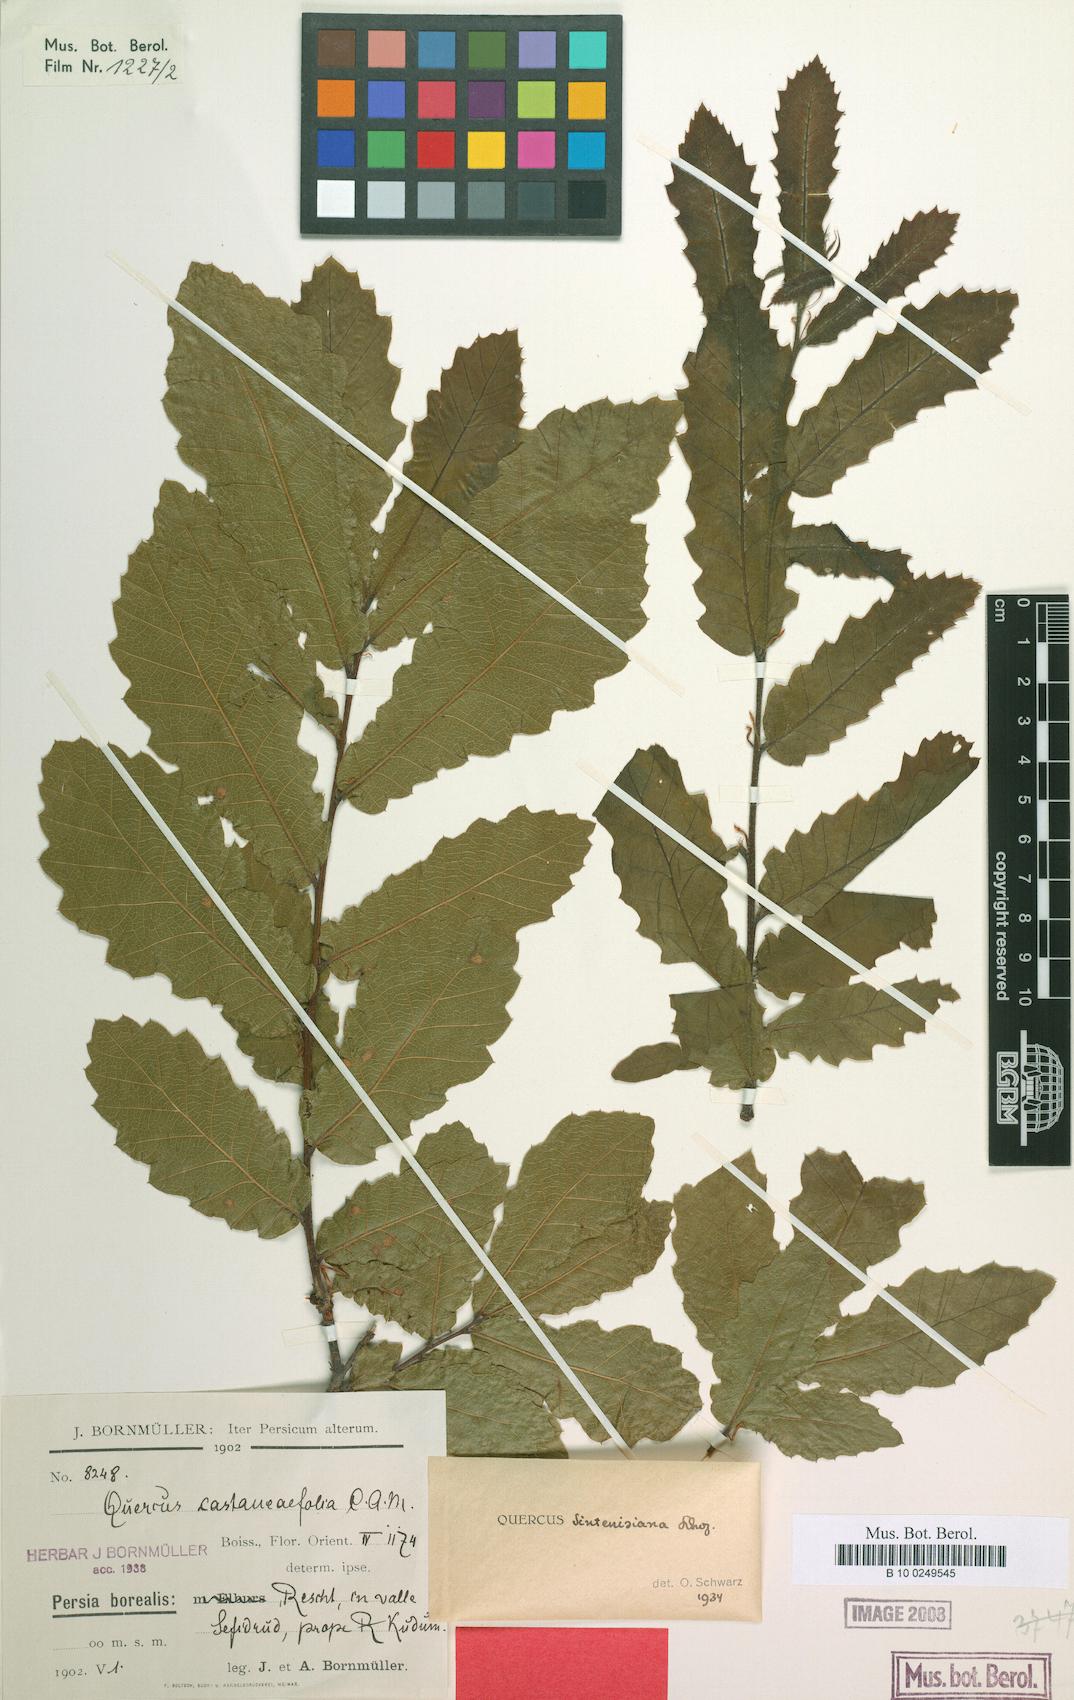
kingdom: Plantae
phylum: Tracheophyta
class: Magnoliopsida
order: Fagales
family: Fagaceae
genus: Quercus
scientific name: Quercus castaneifolia
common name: Chestnut-leaved oak
